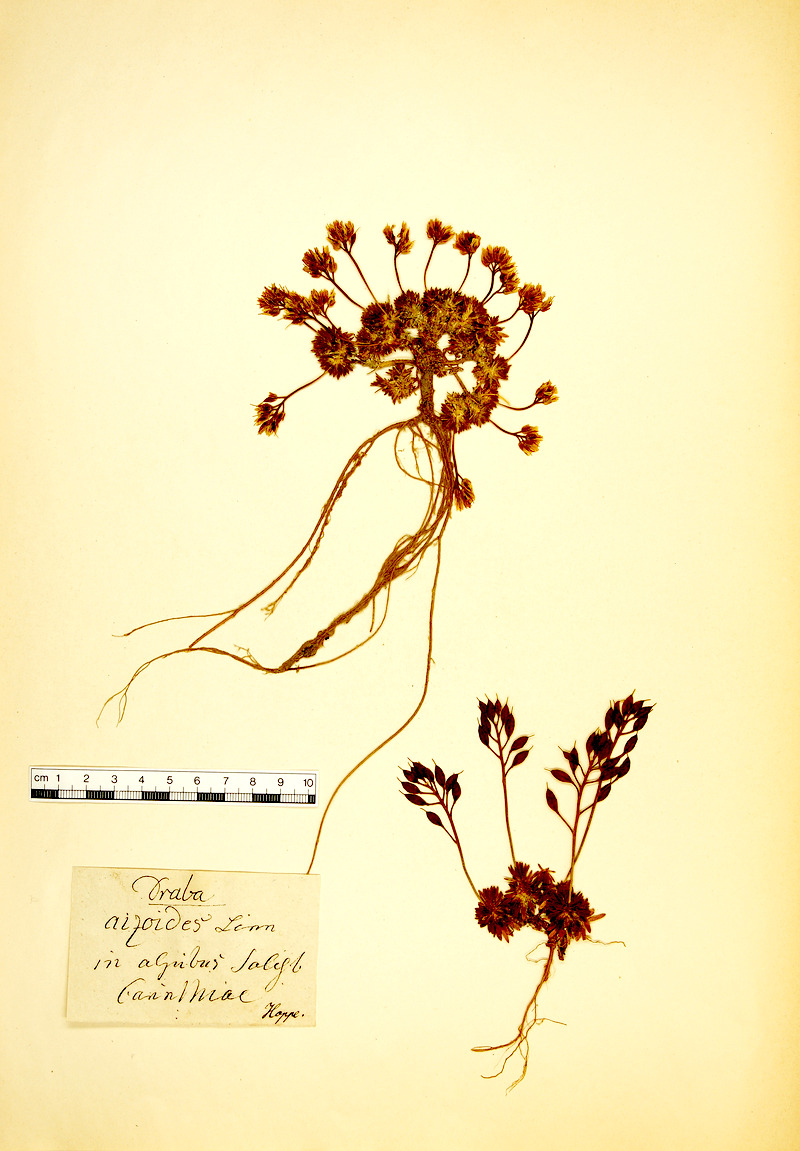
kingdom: Plantae
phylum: Tracheophyta
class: Magnoliopsida
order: Brassicales
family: Brassicaceae
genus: Draba
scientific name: Draba aizoides
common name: Yellow whitlowgrass
